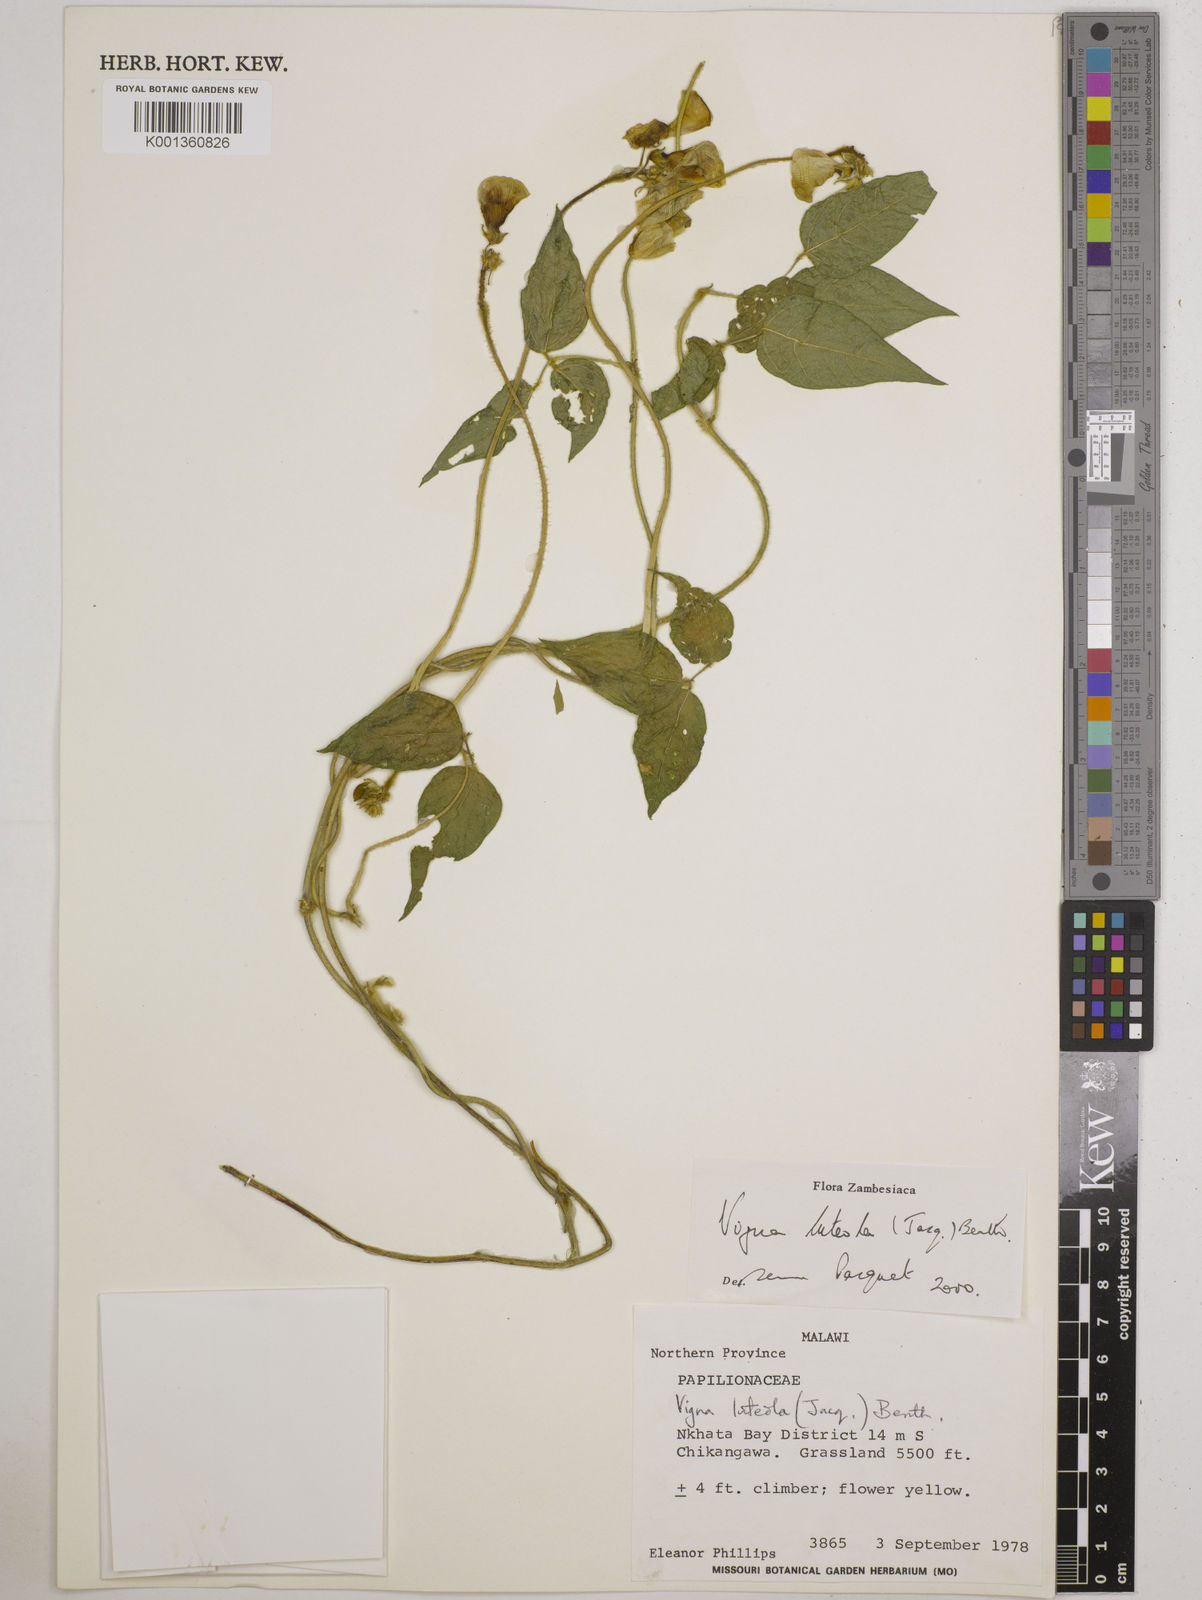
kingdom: Plantae
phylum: Tracheophyta
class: Magnoliopsida
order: Fabales
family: Fabaceae
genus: Vigna
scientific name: Vigna luteola
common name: Hairypod cowpea
